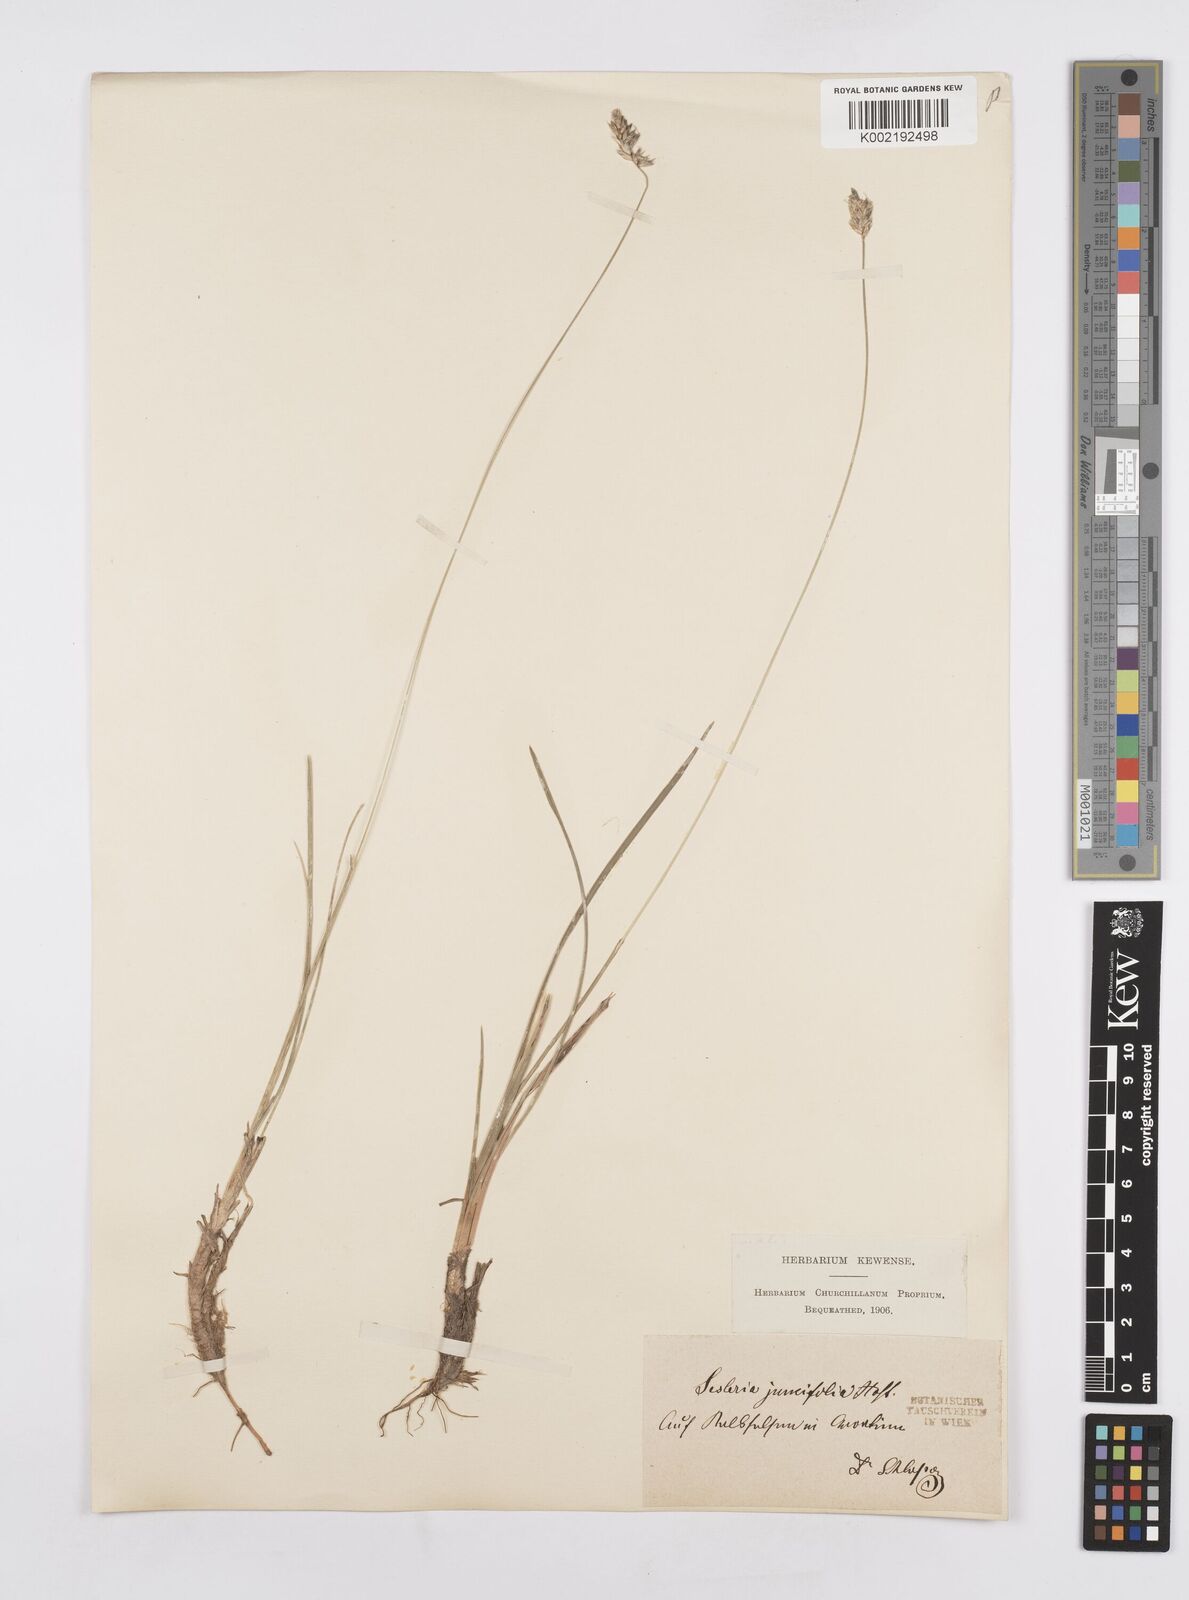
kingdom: Plantae
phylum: Tracheophyta
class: Liliopsida
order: Poales
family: Poaceae
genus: Sesleria
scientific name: Sesleria juncifolia
